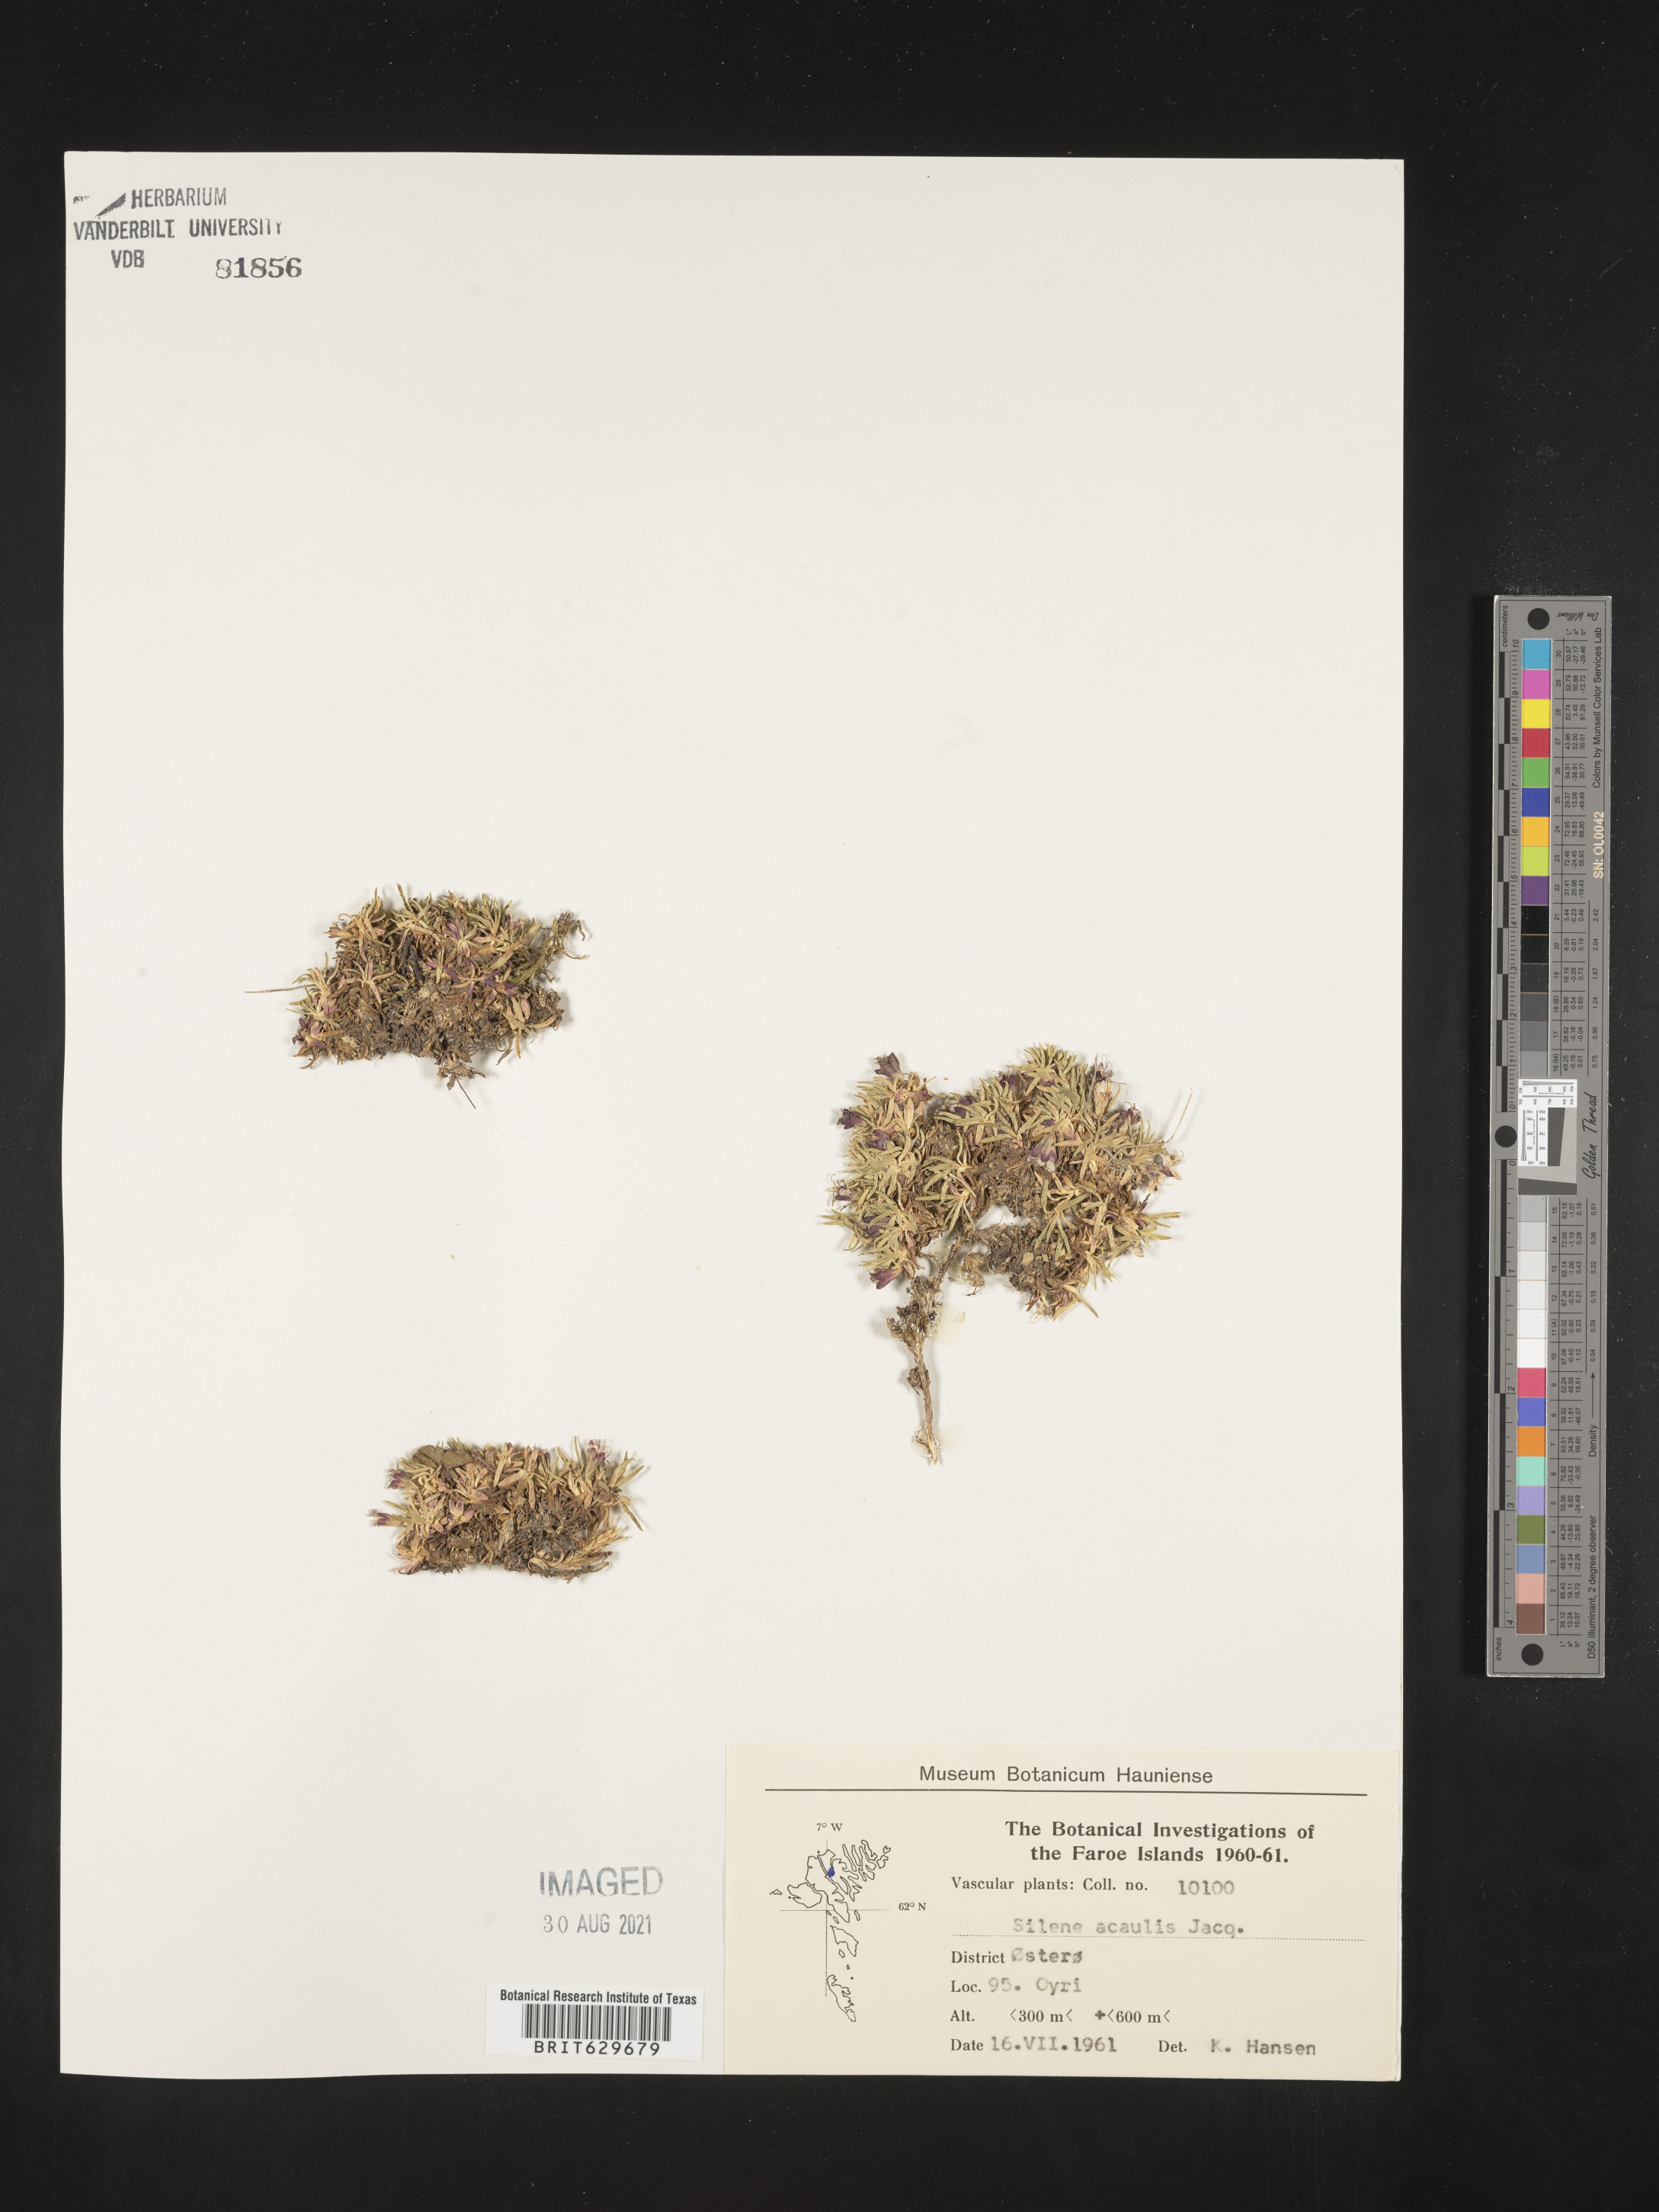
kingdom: Plantae
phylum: Tracheophyta
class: Magnoliopsida
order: Caryophyllales
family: Caryophyllaceae
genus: Silene
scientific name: Silene acaulis
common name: Moss campion
